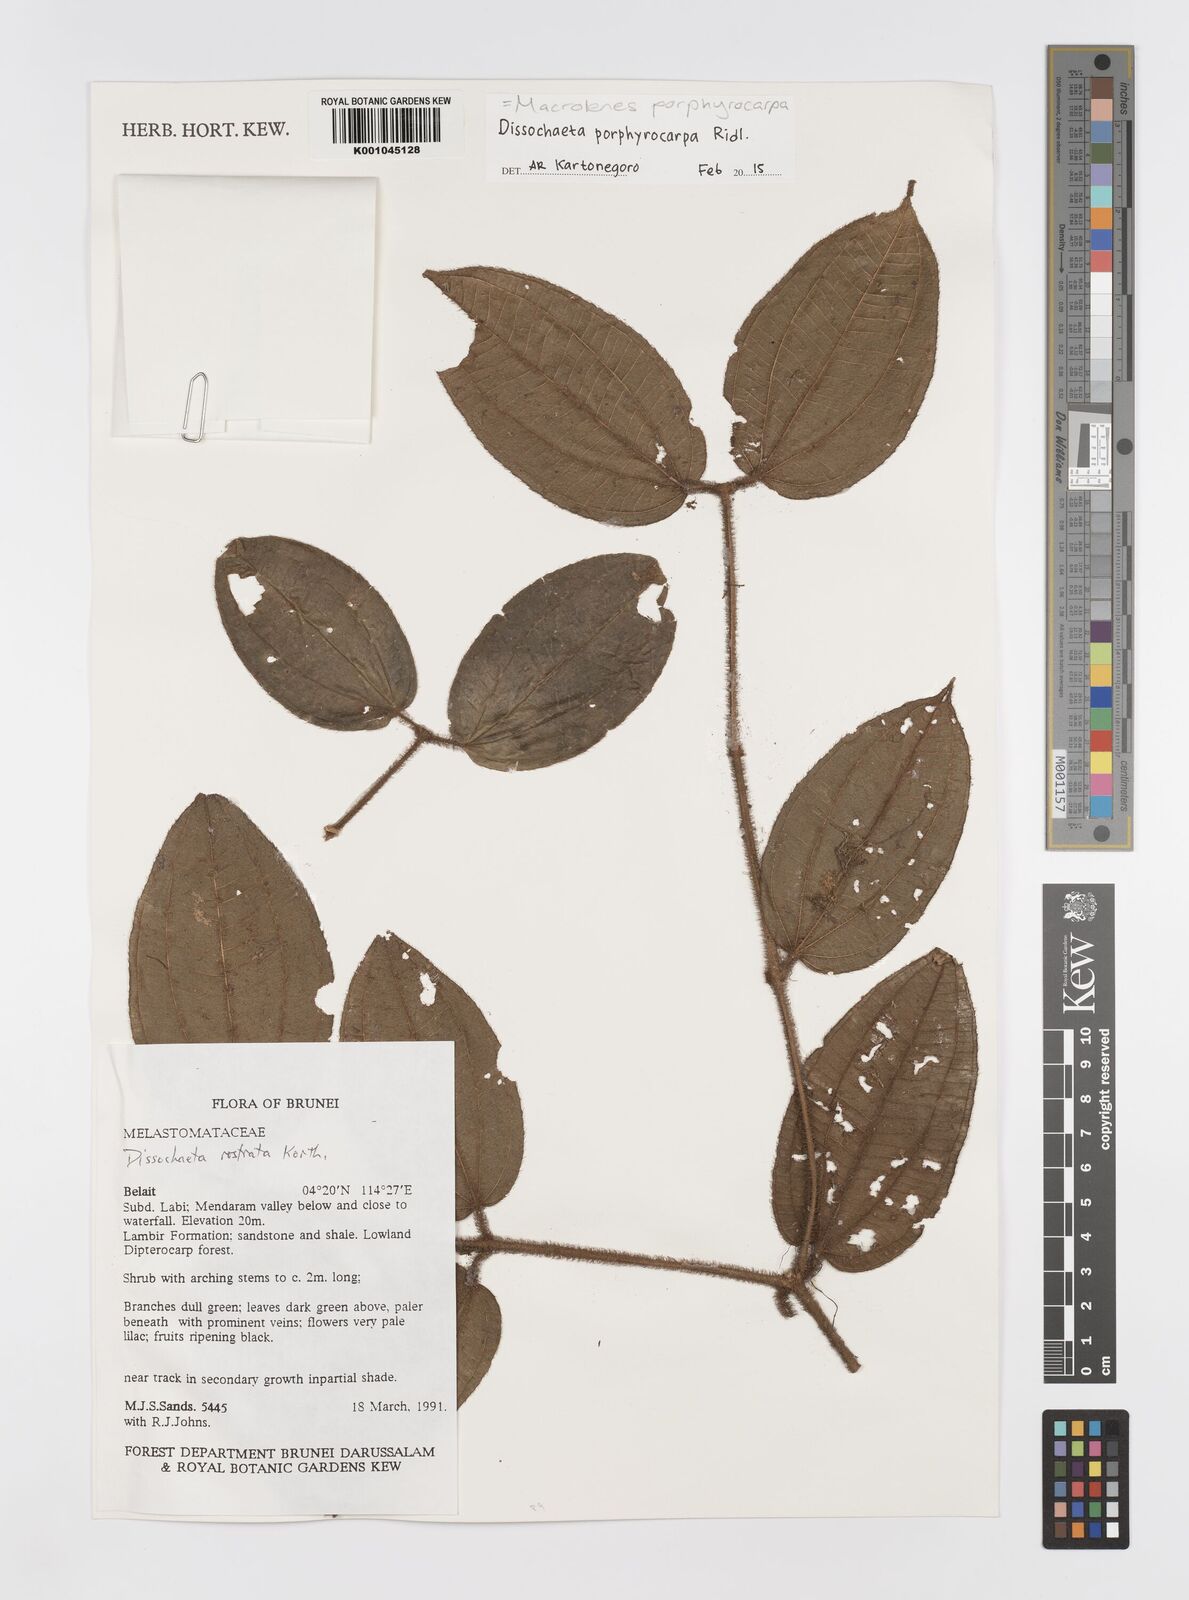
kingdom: Plantae
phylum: Tracheophyta
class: Magnoliopsida
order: Myrtales
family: Melastomataceae
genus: Macrolenes
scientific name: Macrolenes porphyrocarpa
